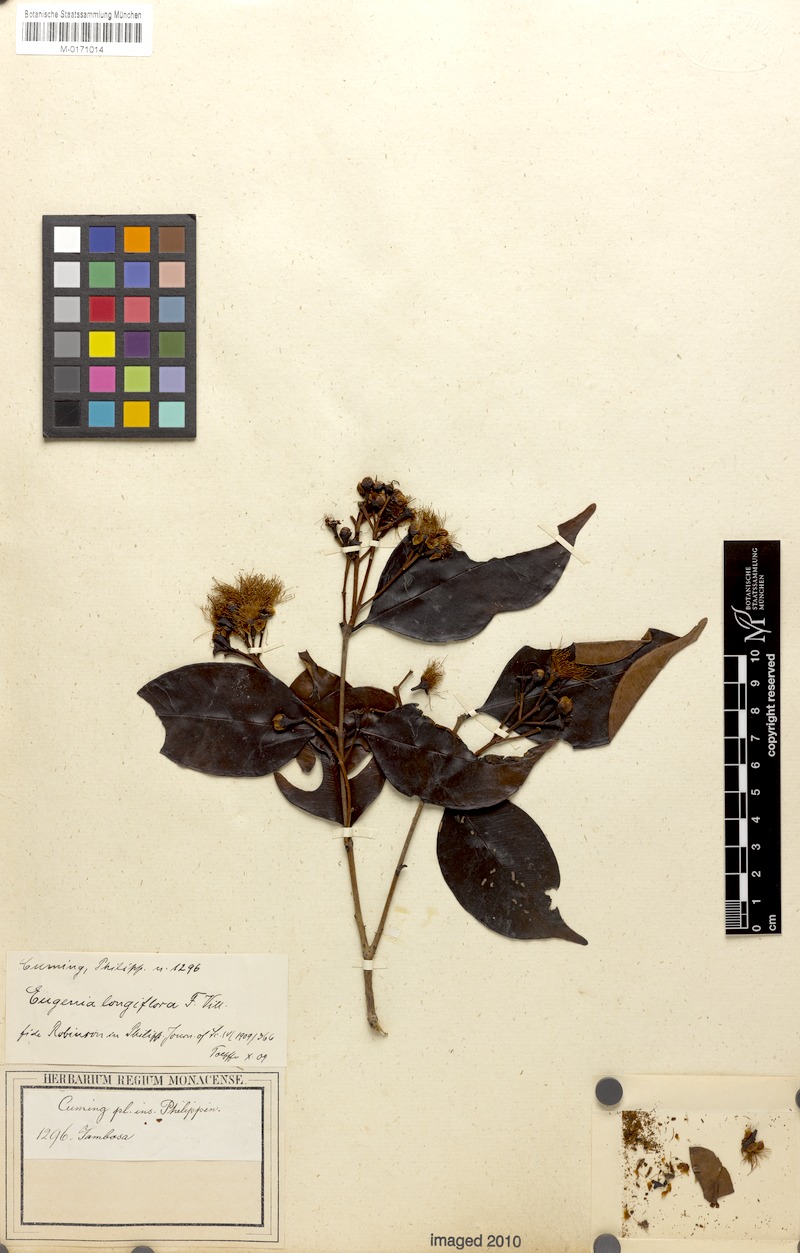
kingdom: Plantae
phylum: Tracheophyta
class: Magnoliopsida
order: Myrtales
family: Myrtaceae
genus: Syzygium
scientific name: Syzygium lineatum
